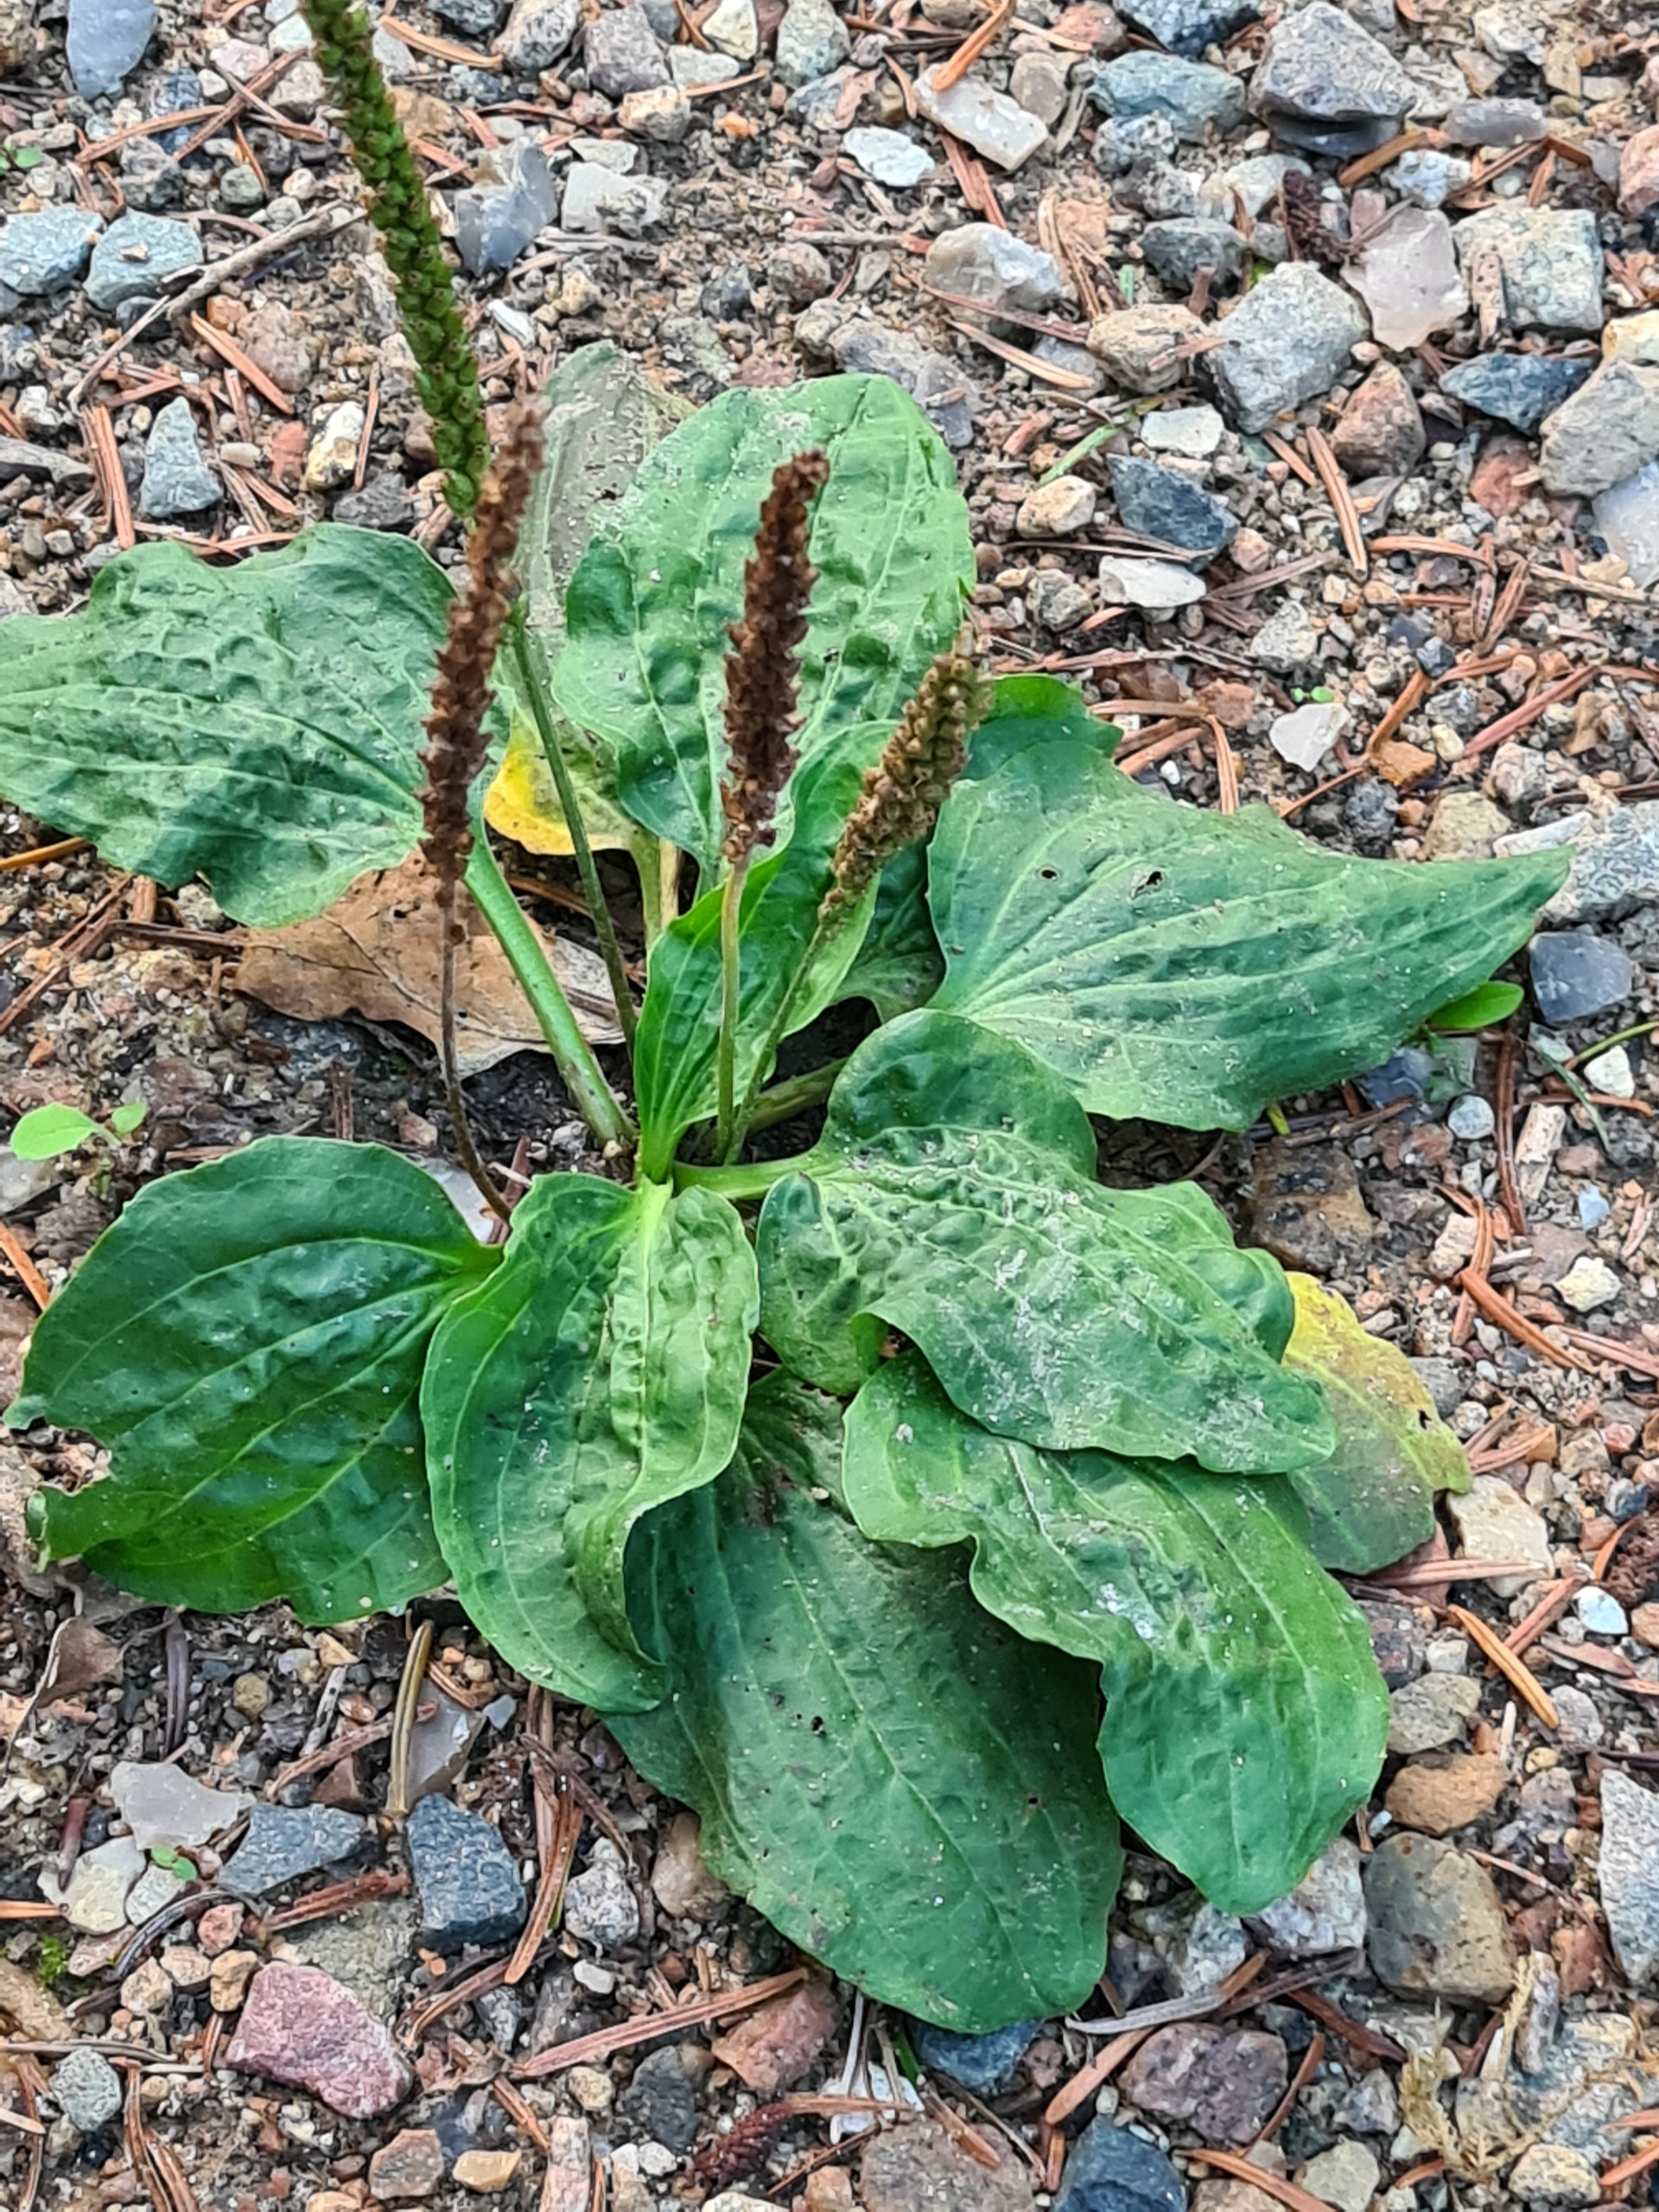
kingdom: Plantae
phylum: Tracheophyta
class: Magnoliopsida
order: Lamiales
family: Plantaginaceae
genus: Plantago
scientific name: Plantago major
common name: Glat vejbred
